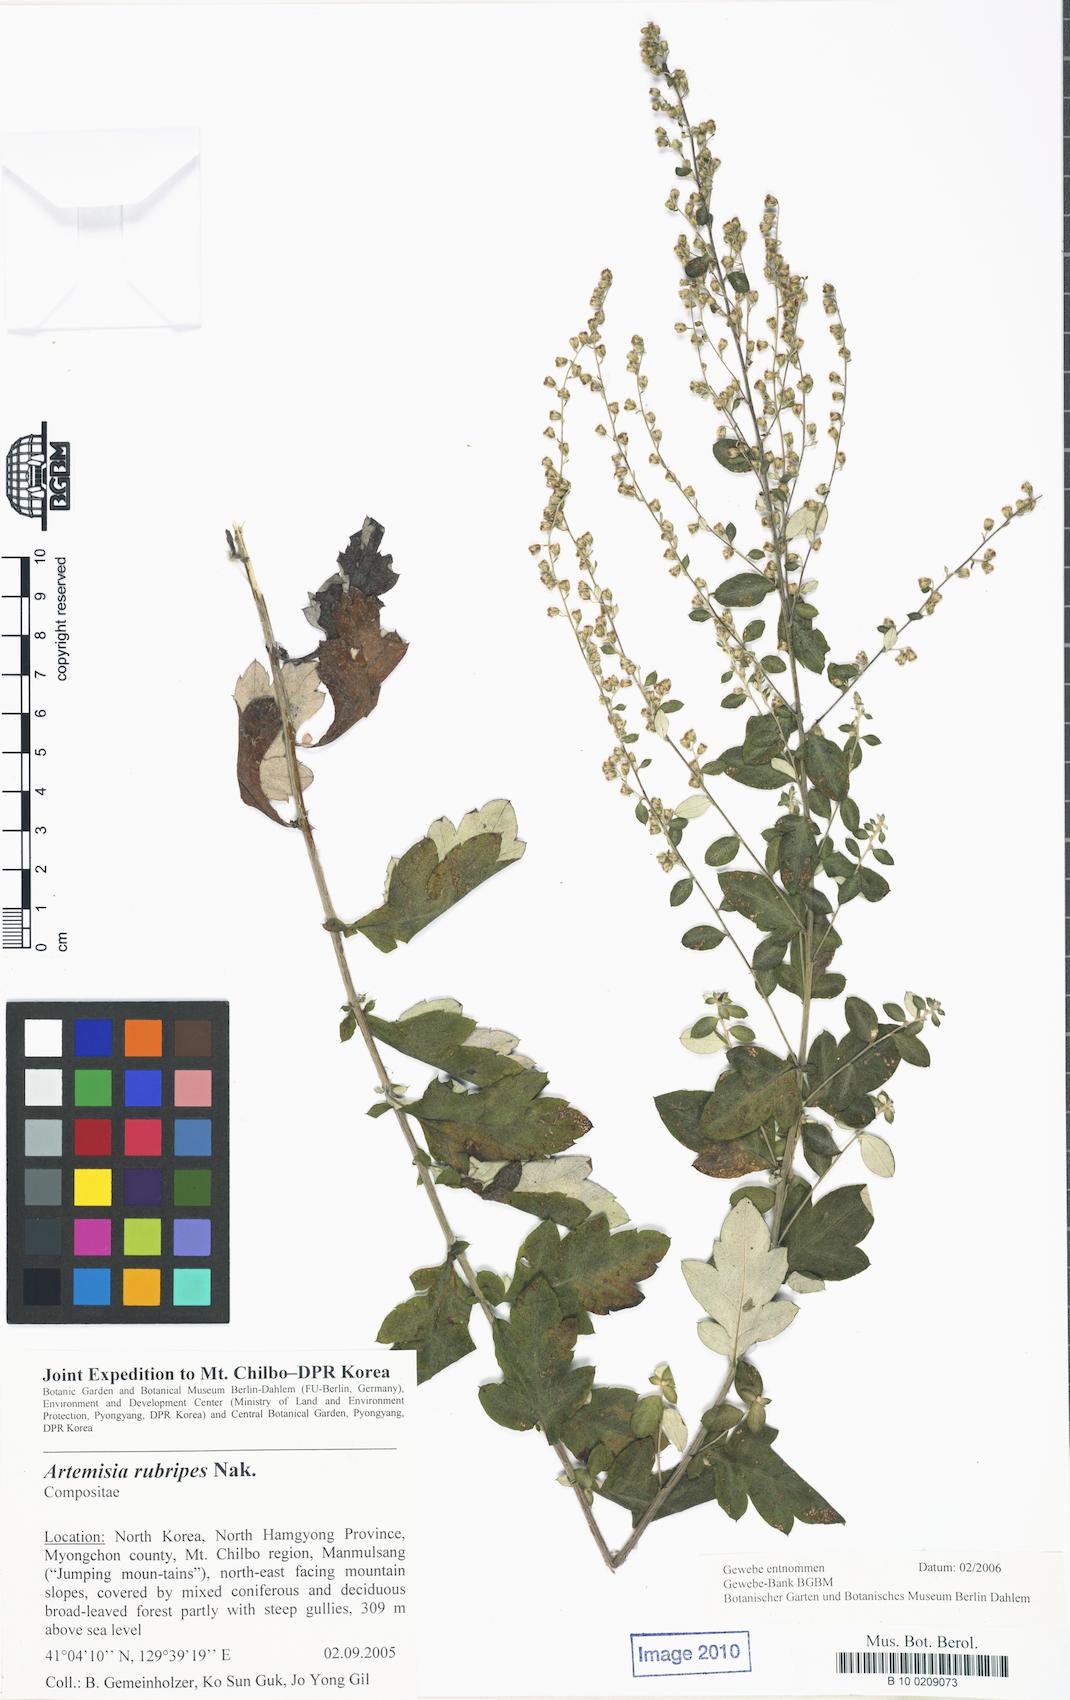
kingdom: Plantae
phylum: Tracheophyta
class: Magnoliopsida
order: Asterales
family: Asteraceae
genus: Artemisia
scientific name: Artemisia rubripes
